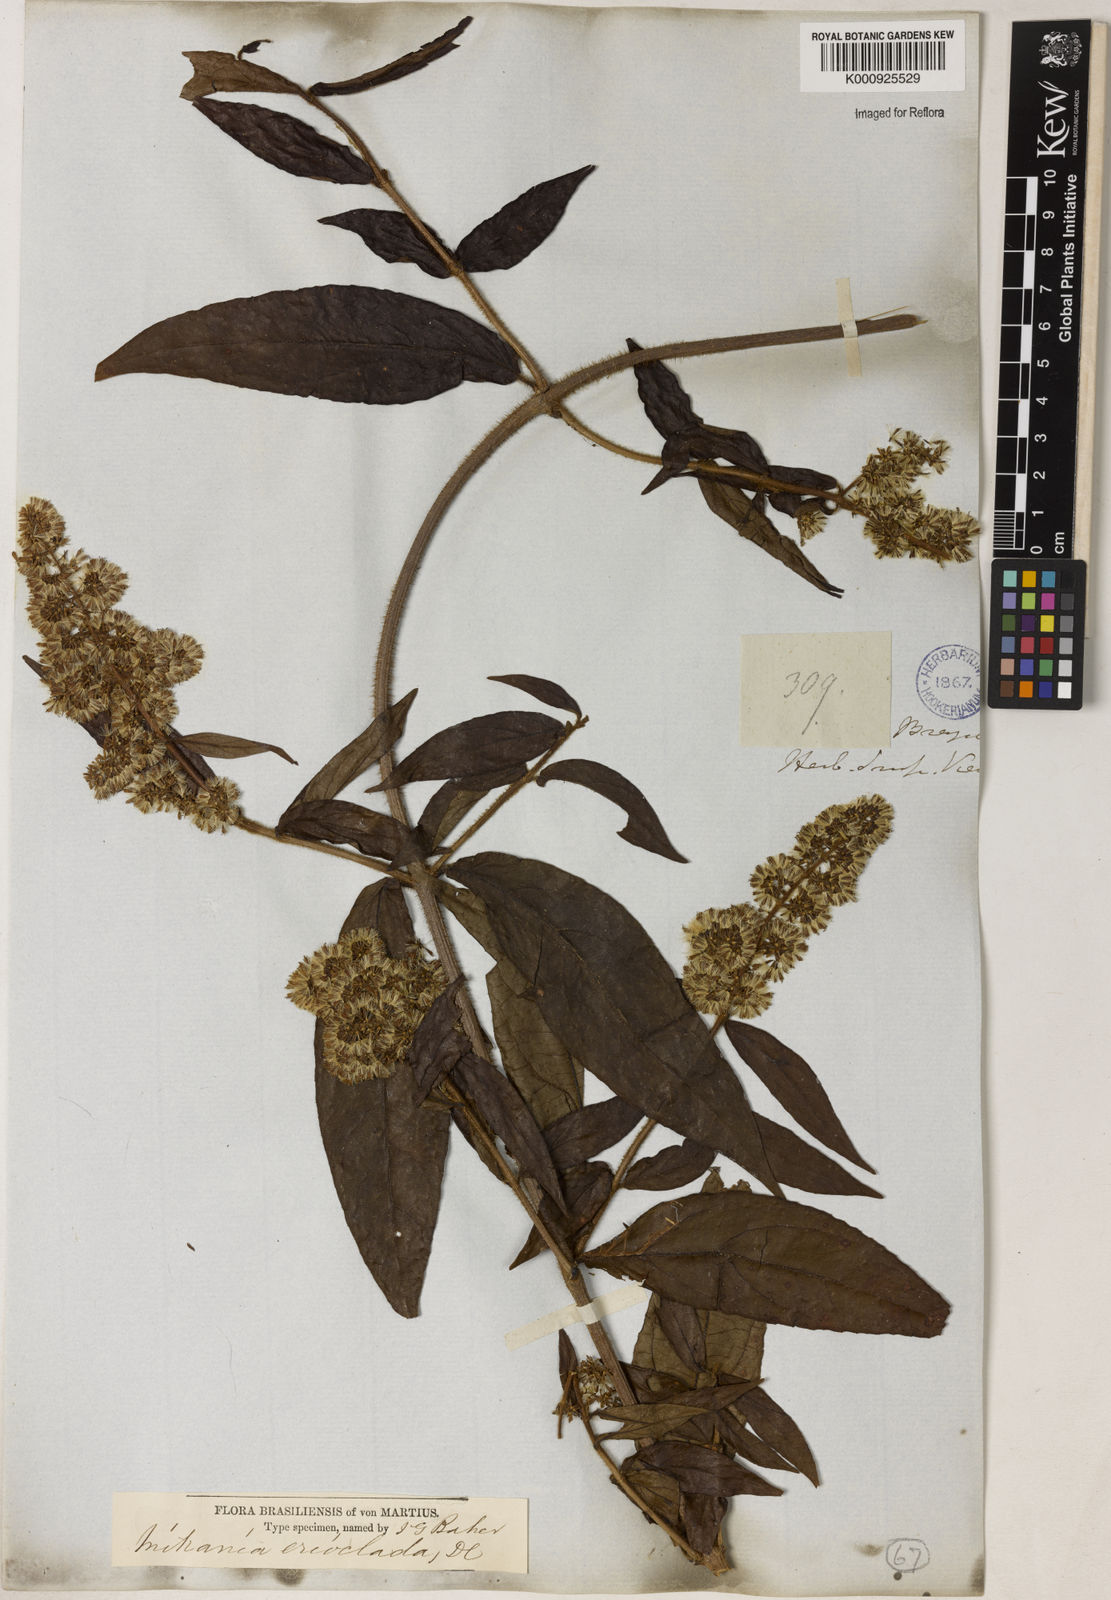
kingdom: Plantae
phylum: Tracheophyta
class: Magnoliopsida
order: Asterales
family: Asteraceae
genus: Mikania
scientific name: Mikania erioclada
